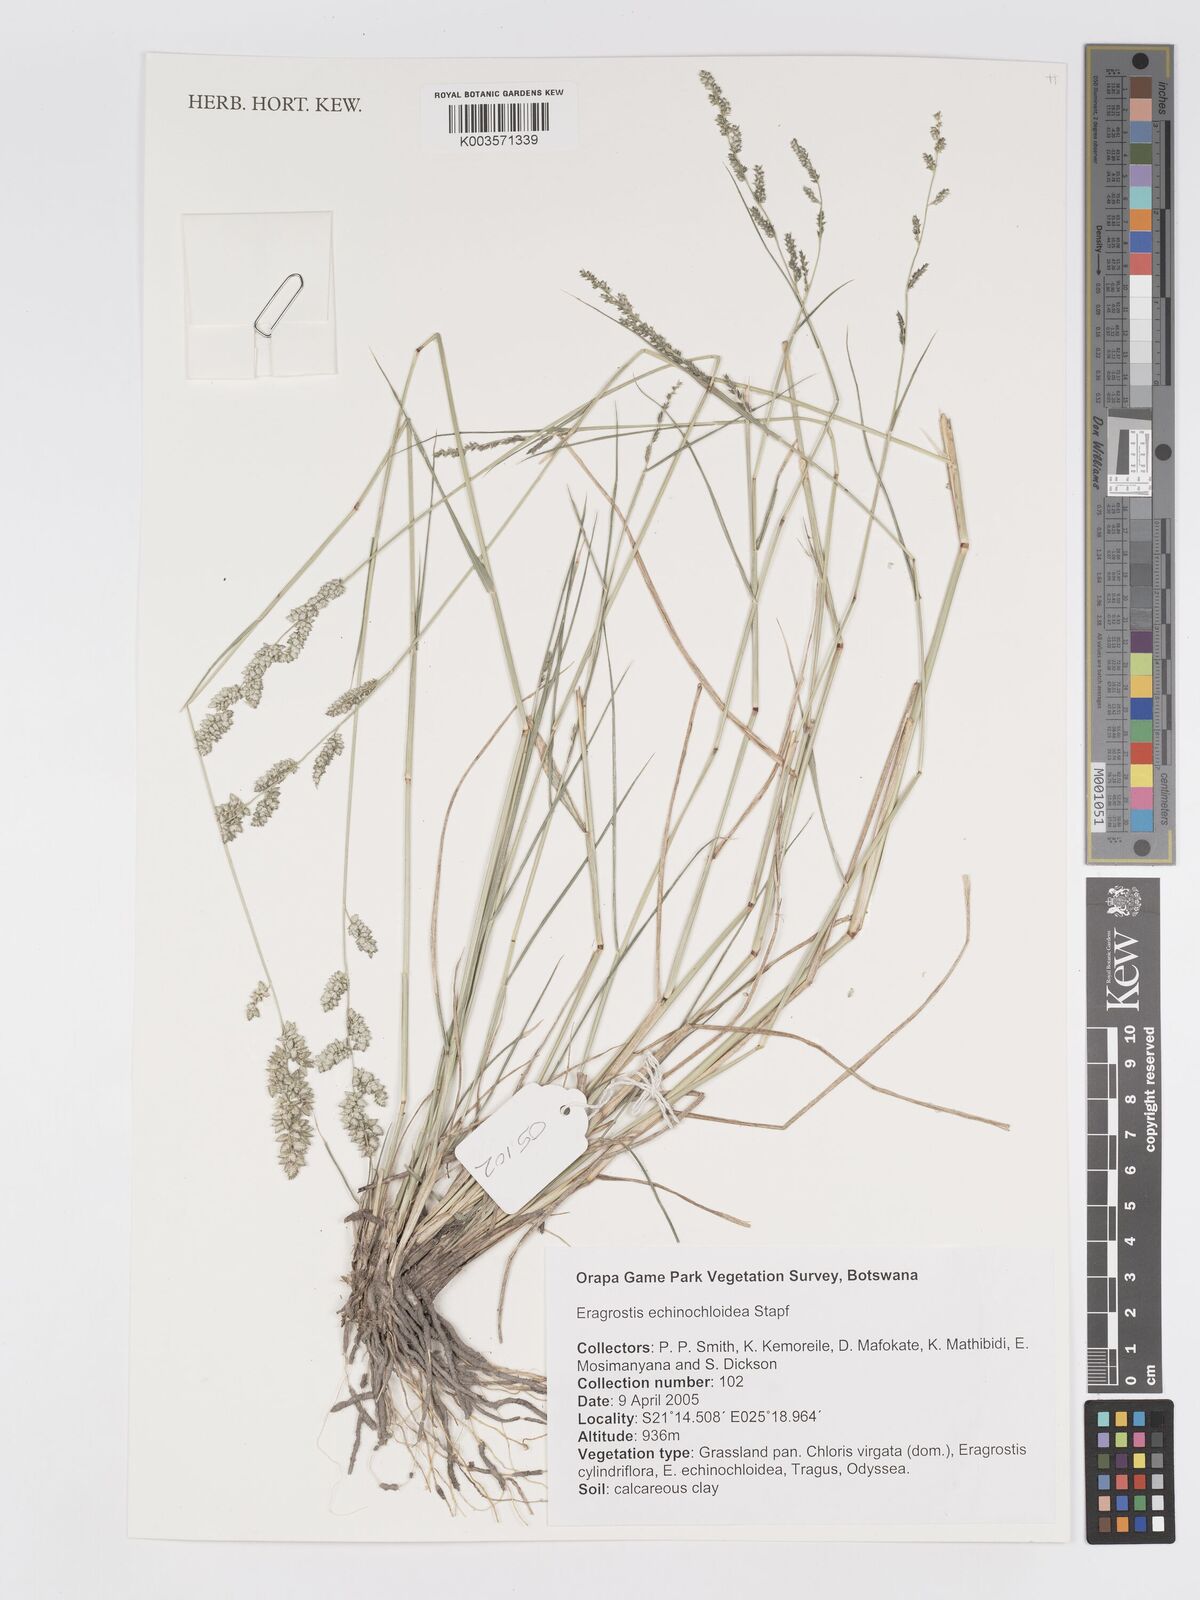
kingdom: Plantae
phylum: Tracheophyta
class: Liliopsida
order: Poales
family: Poaceae
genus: Eragrostis
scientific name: Eragrostis echinochloidea
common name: African lovegrass
